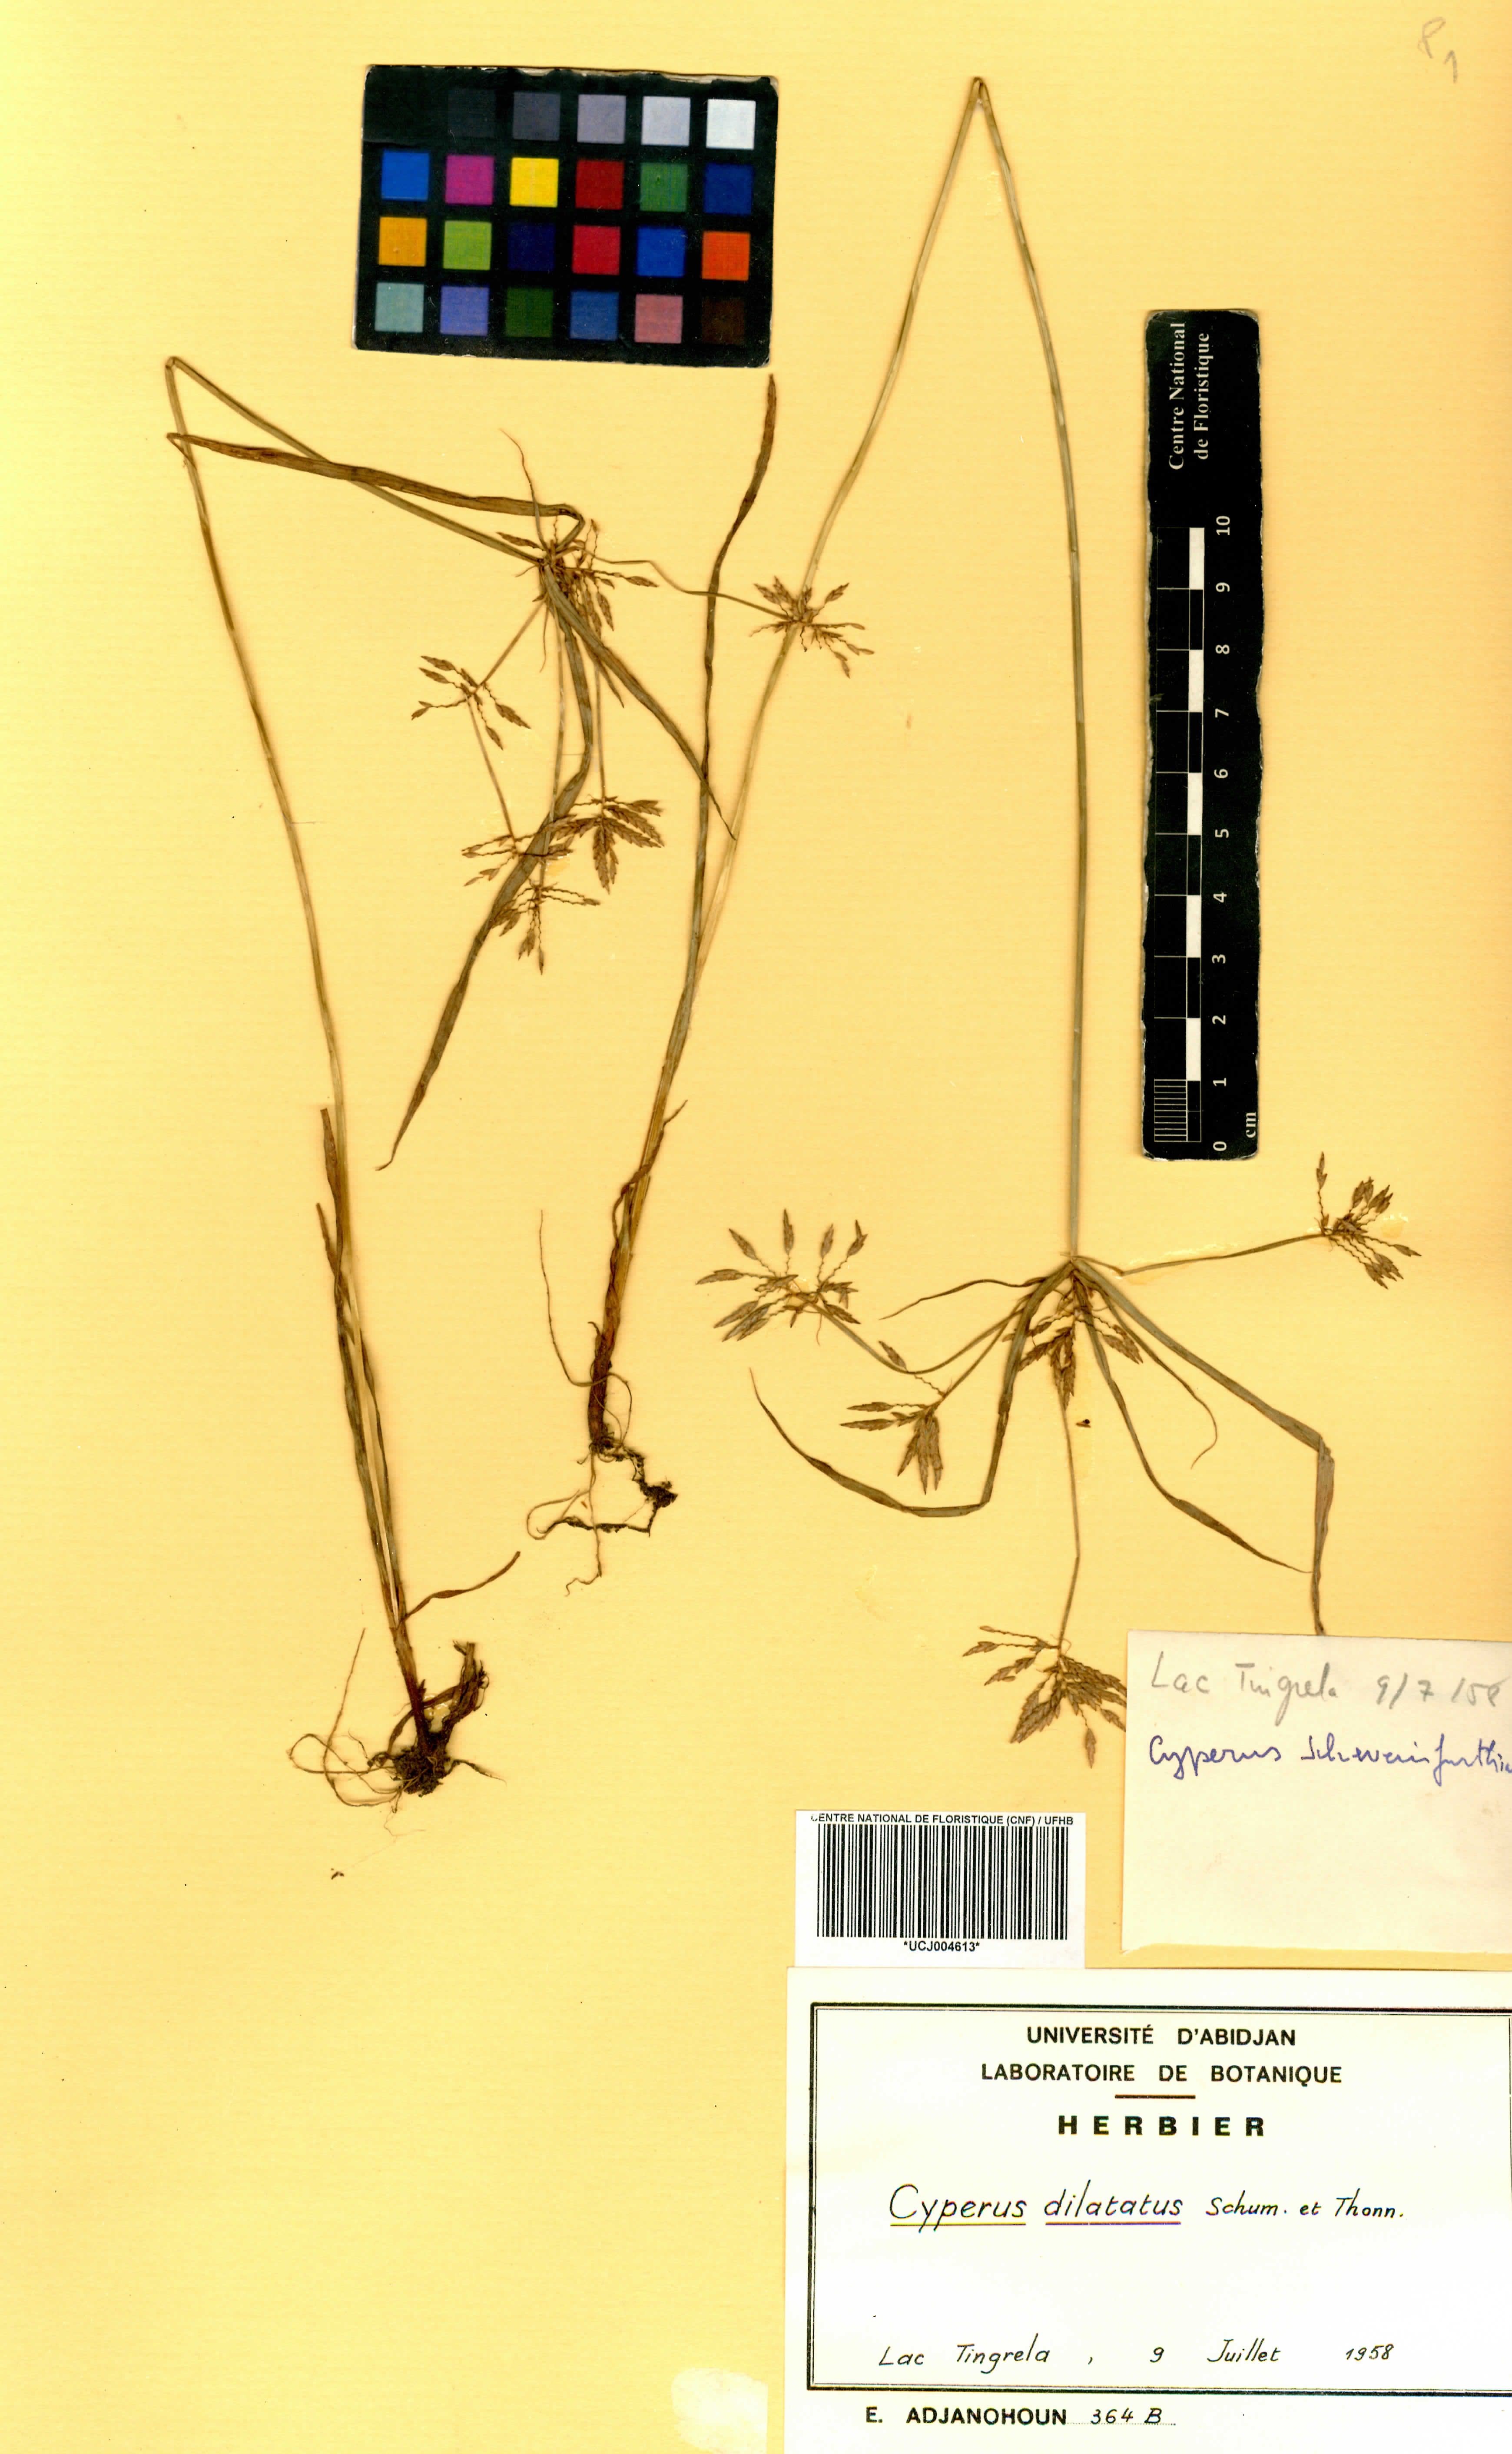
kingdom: Plantae
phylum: Tracheophyta
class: Liliopsida
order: Poales
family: Cyperaceae
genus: Cyperus
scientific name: Cyperus dilatatus
